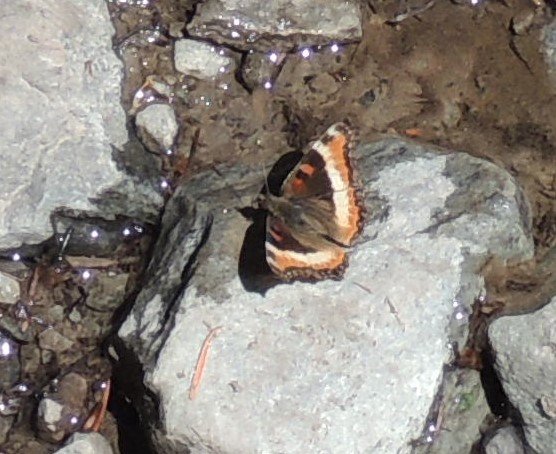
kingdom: Animalia
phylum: Arthropoda
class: Insecta
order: Lepidoptera
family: Nymphalidae
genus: Aglais
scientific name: Aglais milberti
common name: Milbert's Tortoiseshell
